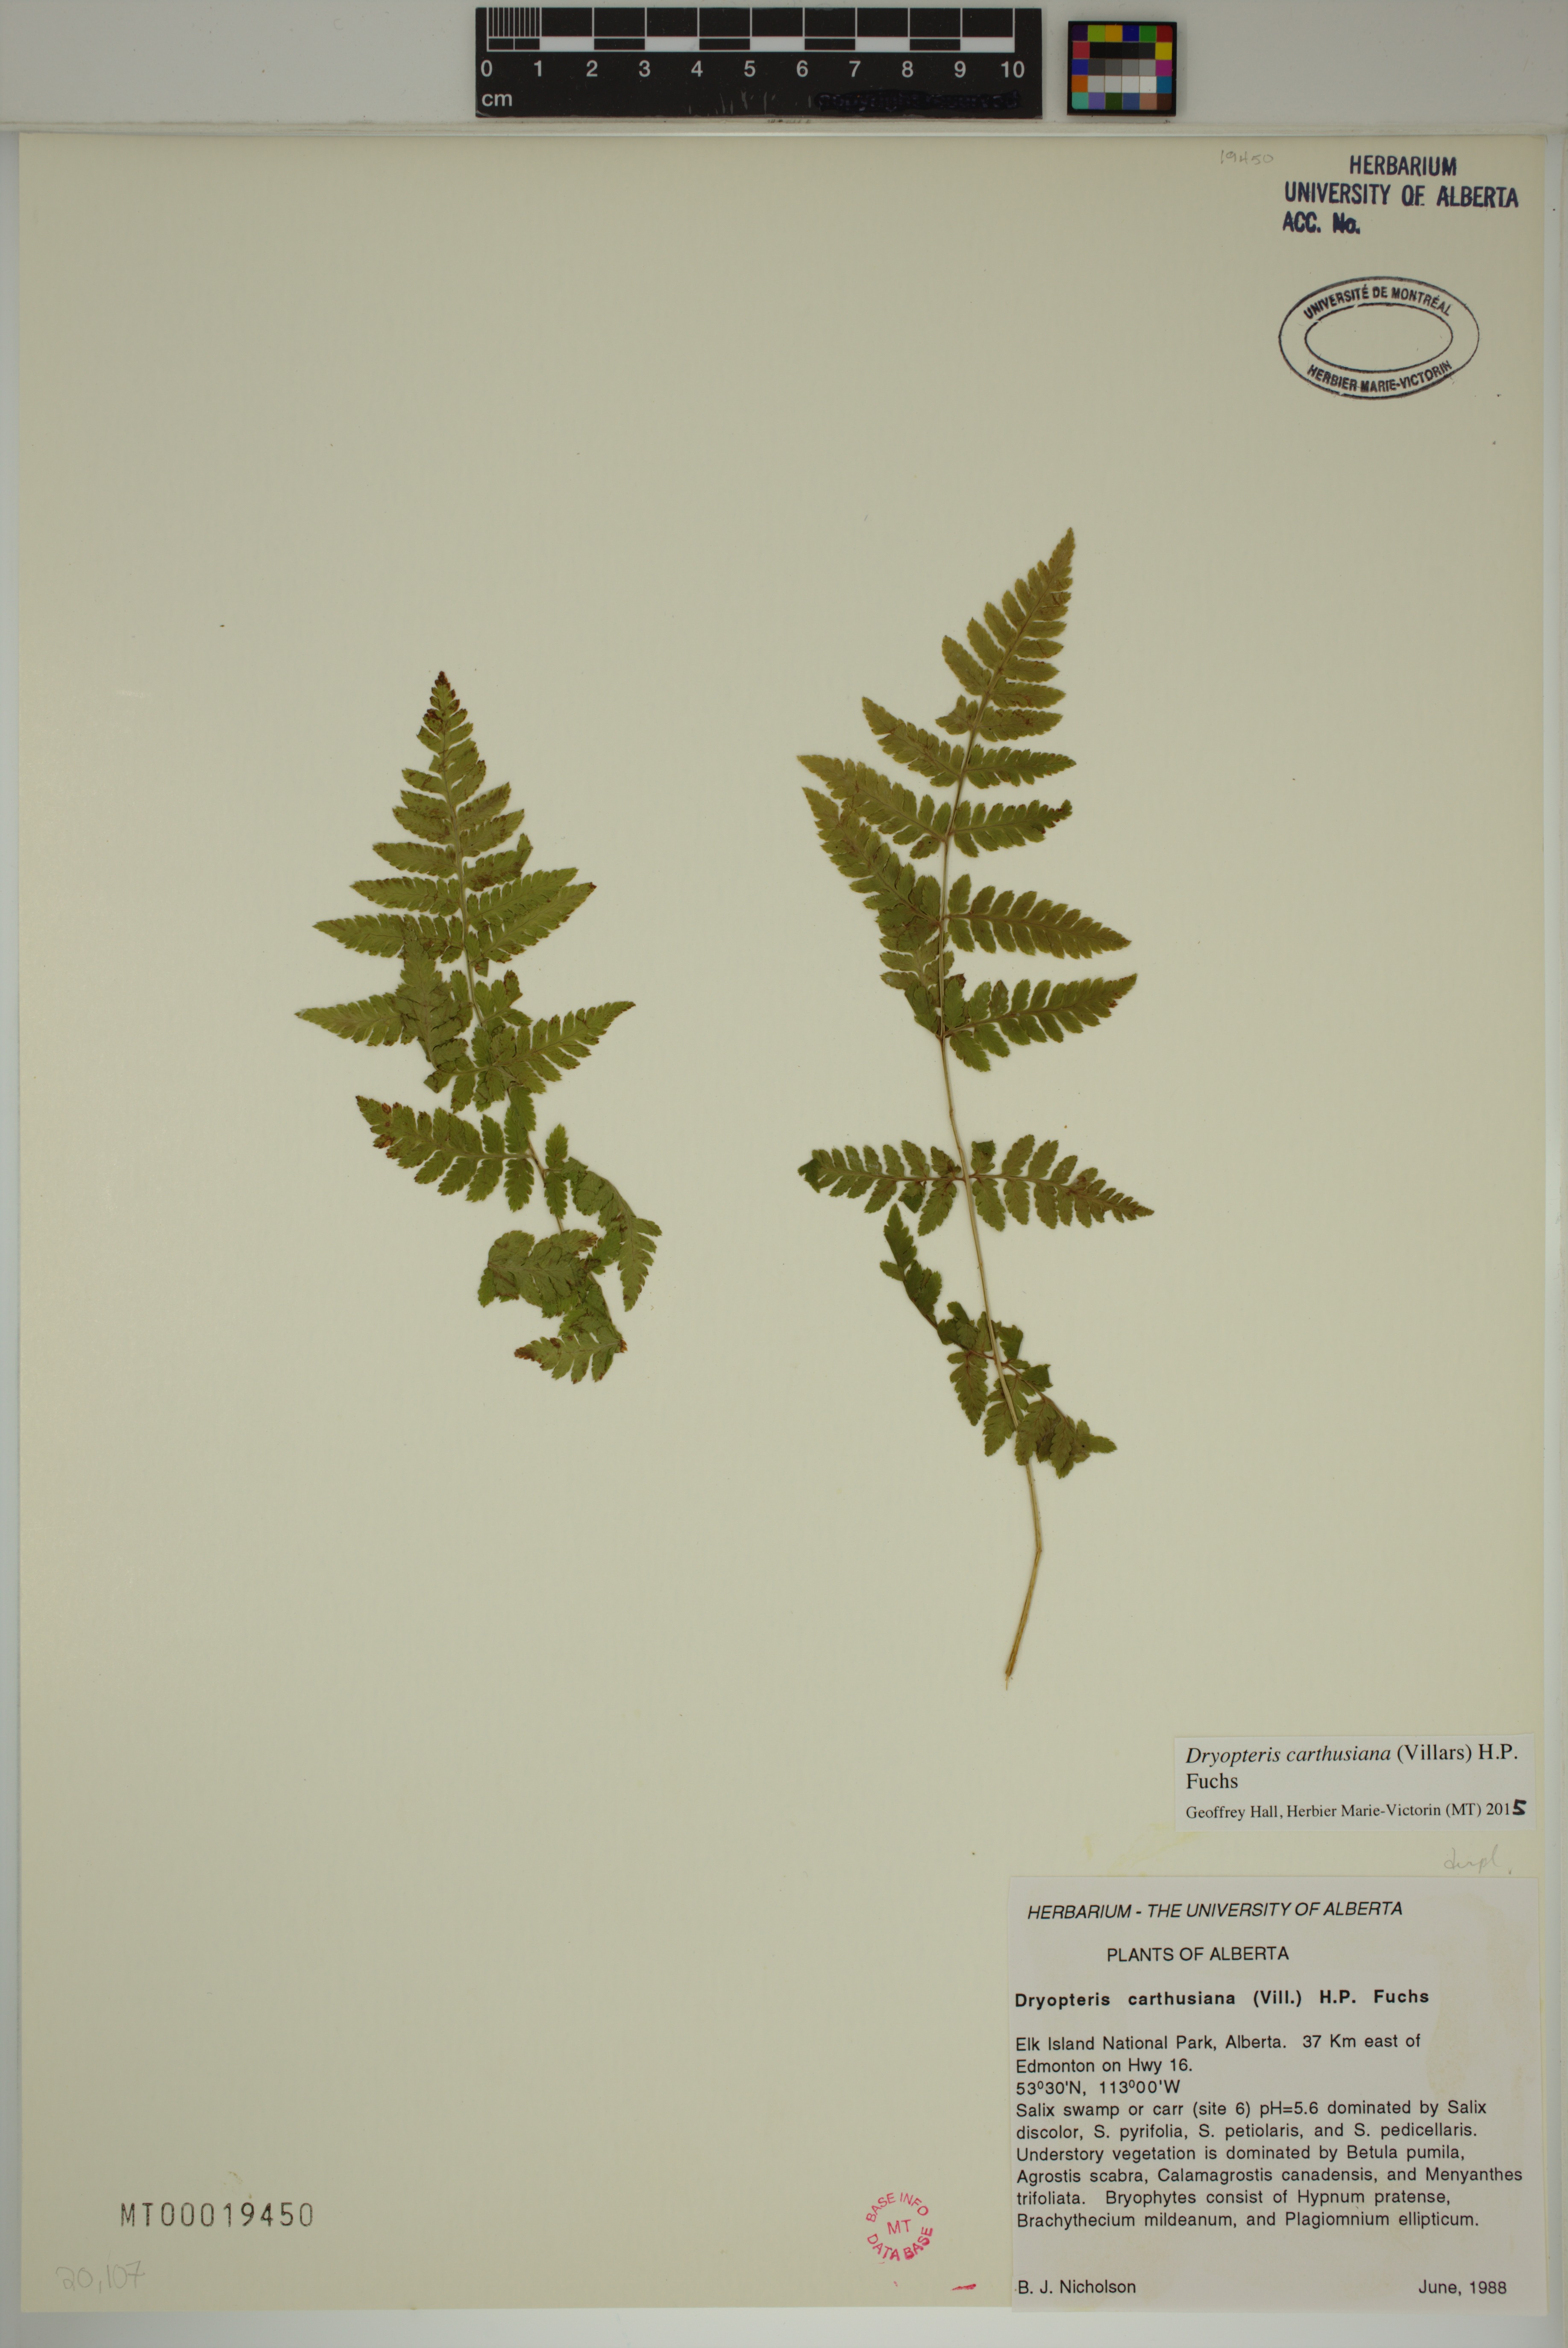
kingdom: Plantae
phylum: Tracheophyta
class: Polypodiopsida
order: Polypodiales
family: Dryopteridaceae
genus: Dryopteris
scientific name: Dryopteris carthusiana
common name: Narrow buckler-fern
